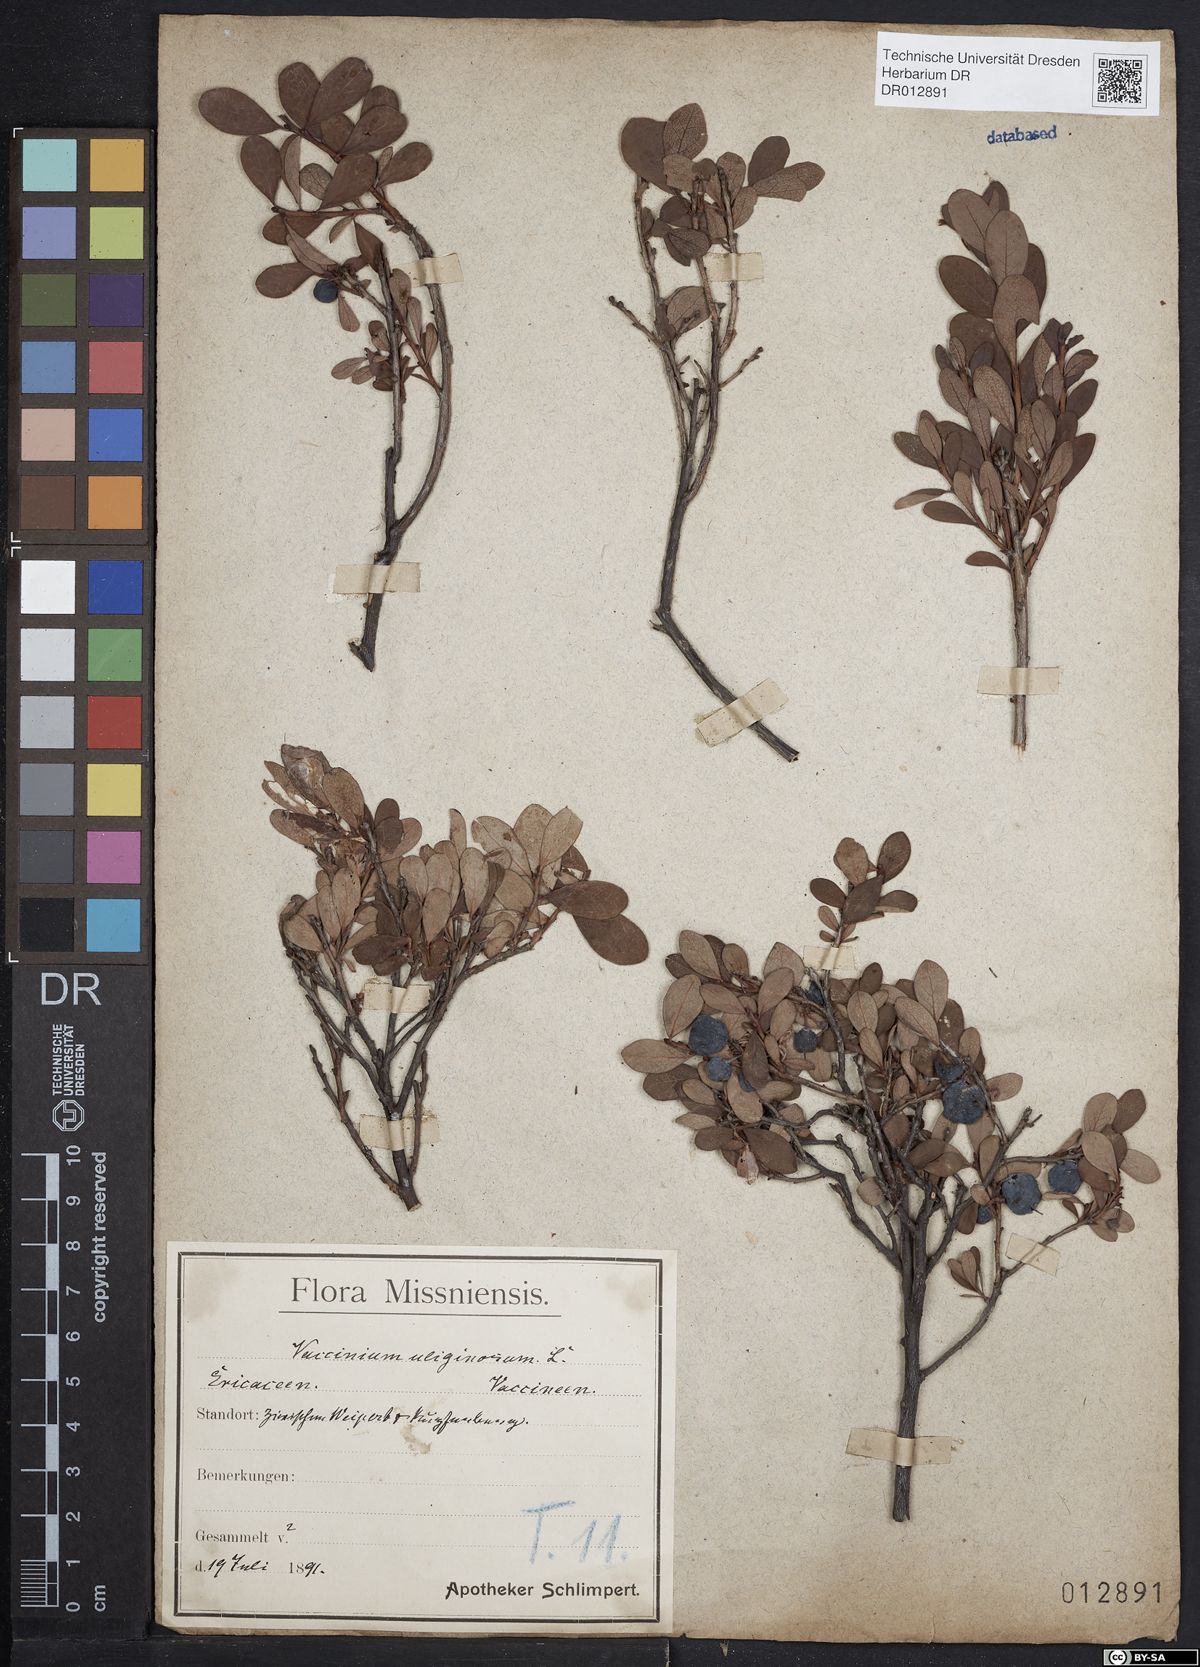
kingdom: Plantae
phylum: Tracheophyta
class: Magnoliopsida
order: Ericales
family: Ericaceae
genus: Vaccinium
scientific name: Vaccinium uliginosum
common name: Bog bilberry
